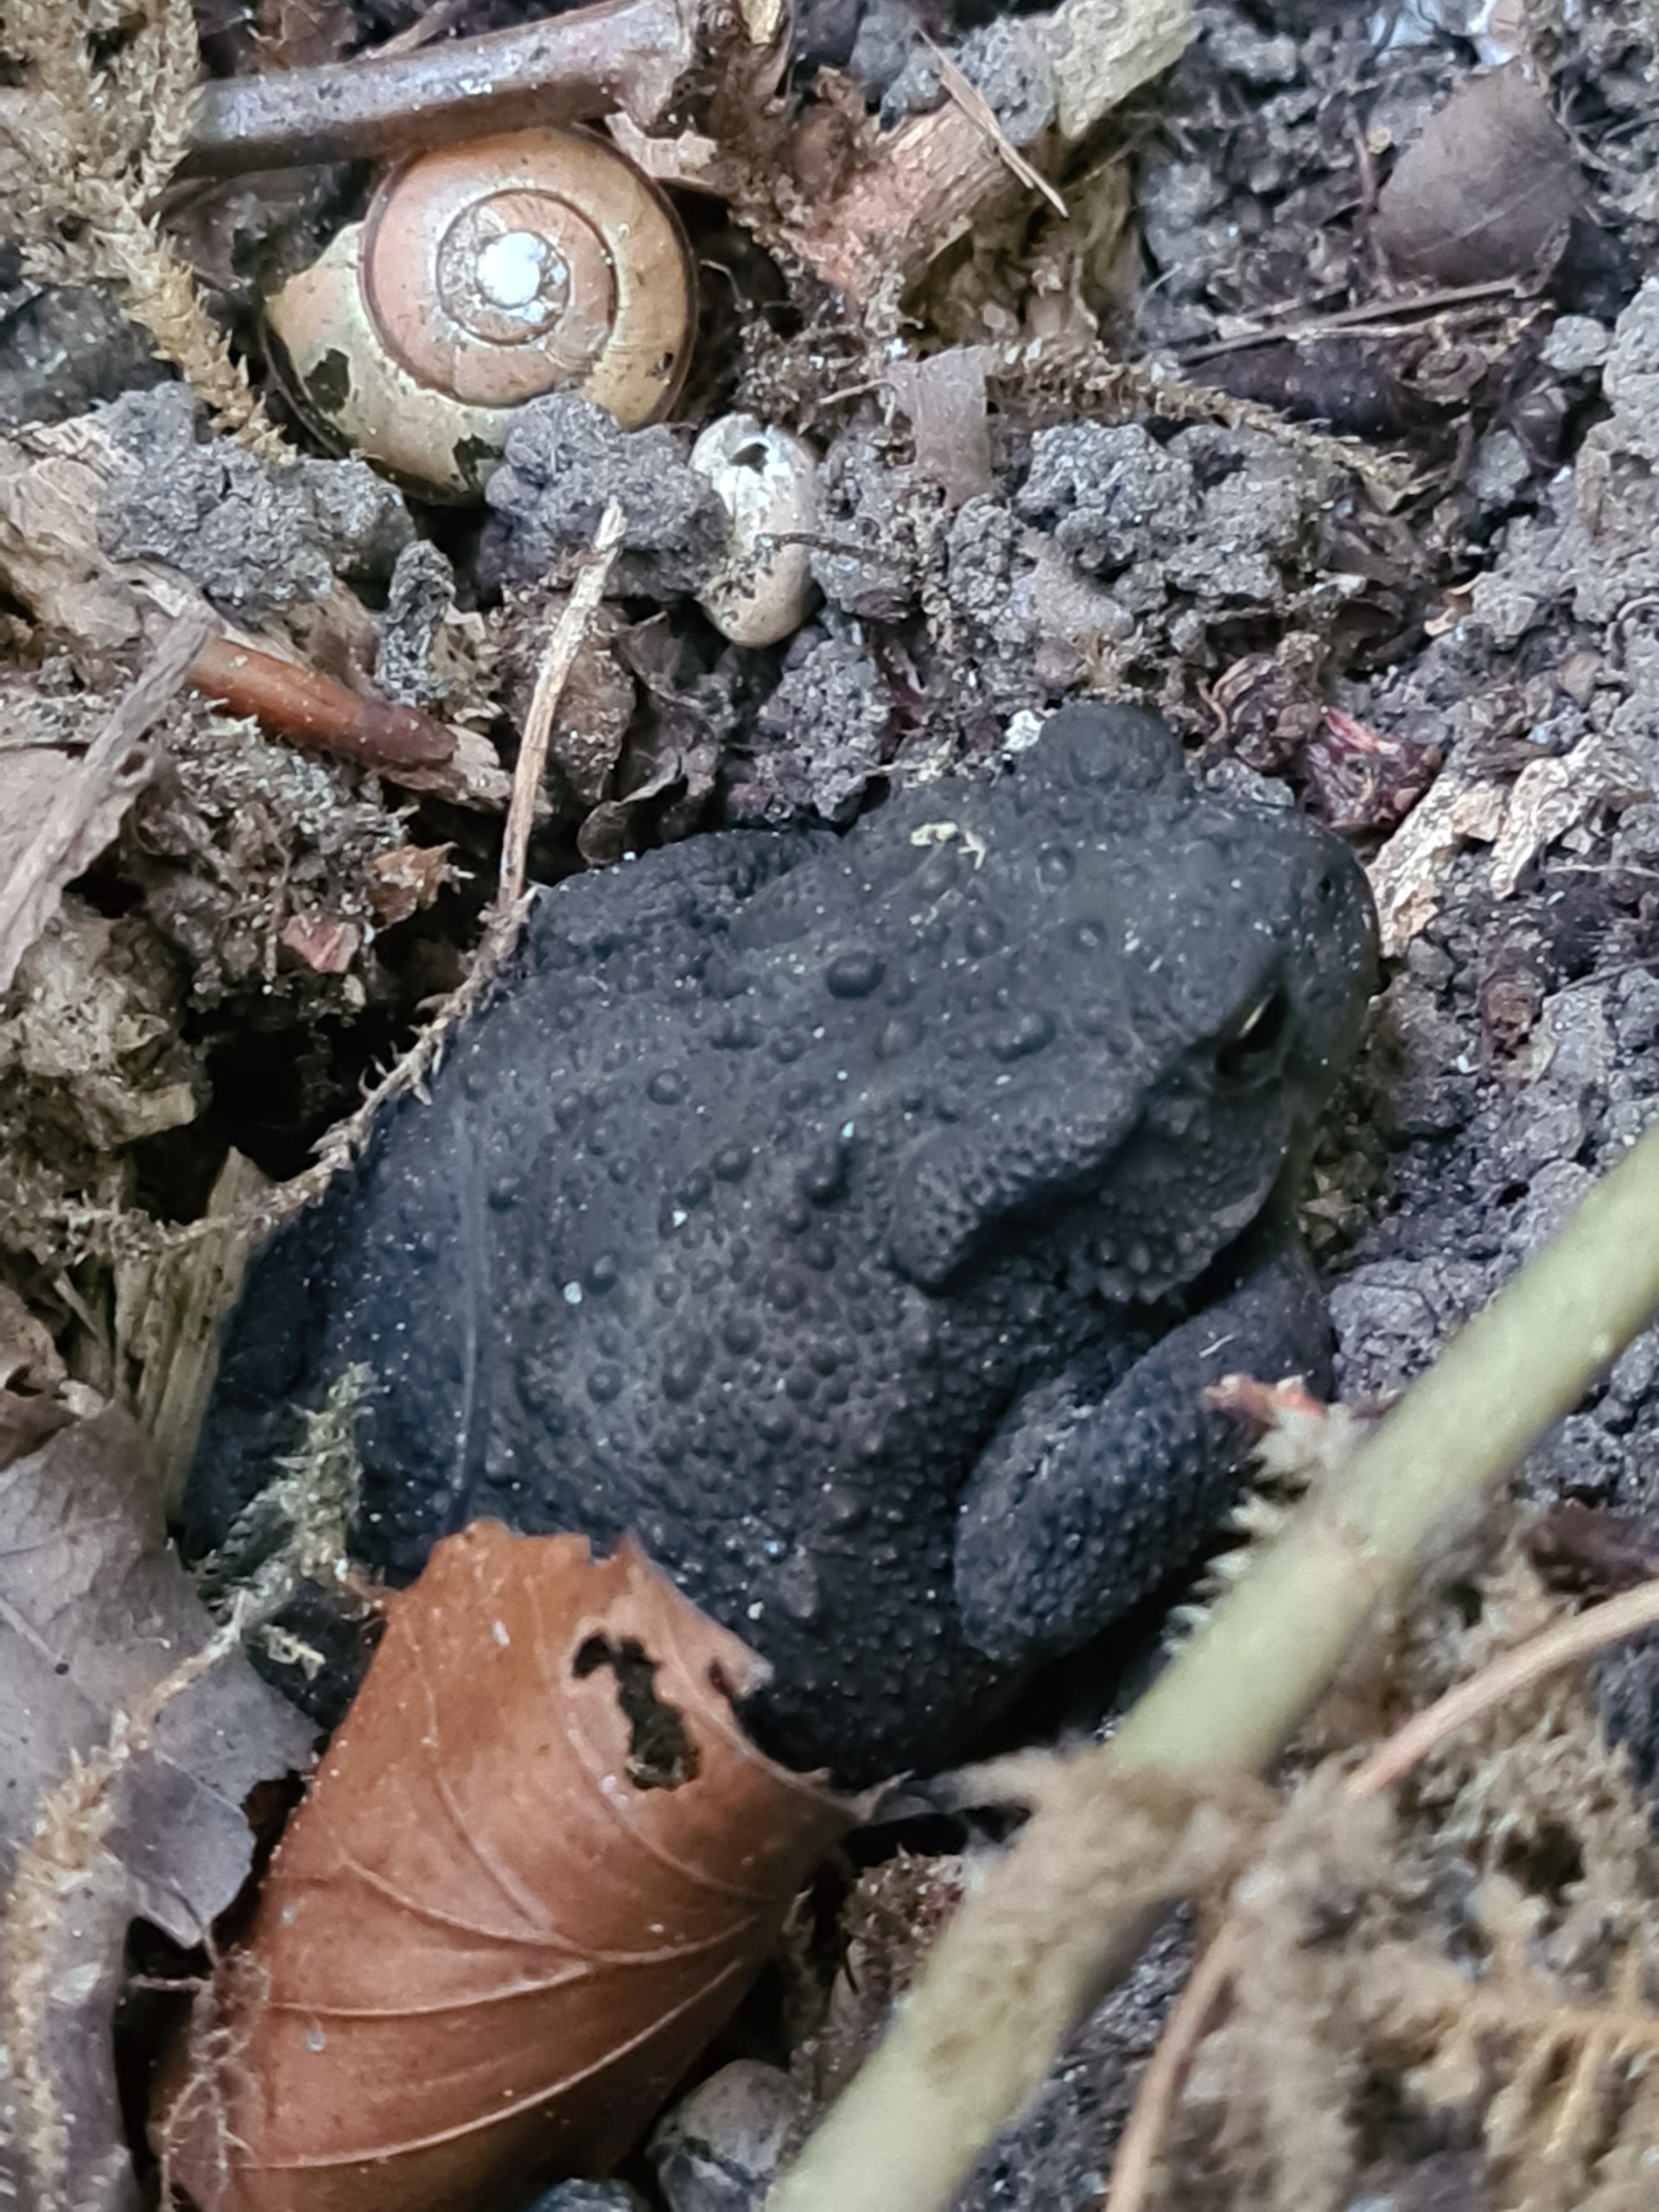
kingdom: Animalia
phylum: Chordata
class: Amphibia
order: Anura
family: Bufonidae
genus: Bufo
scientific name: Bufo bufo
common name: Skrubtudse
